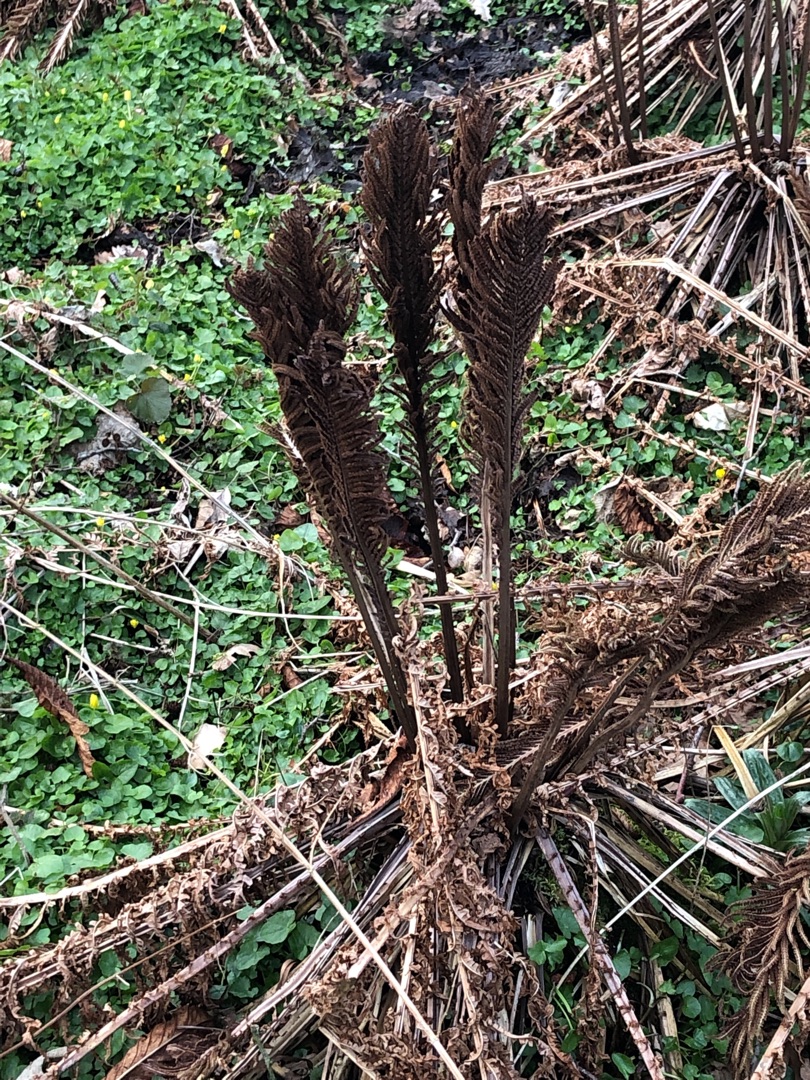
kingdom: Plantae
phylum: Tracheophyta
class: Polypodiopsida
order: Polypodiales
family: Onocleaceae
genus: Matteuccia
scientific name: Matteuccia struthiopteris
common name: Strudsvinge
